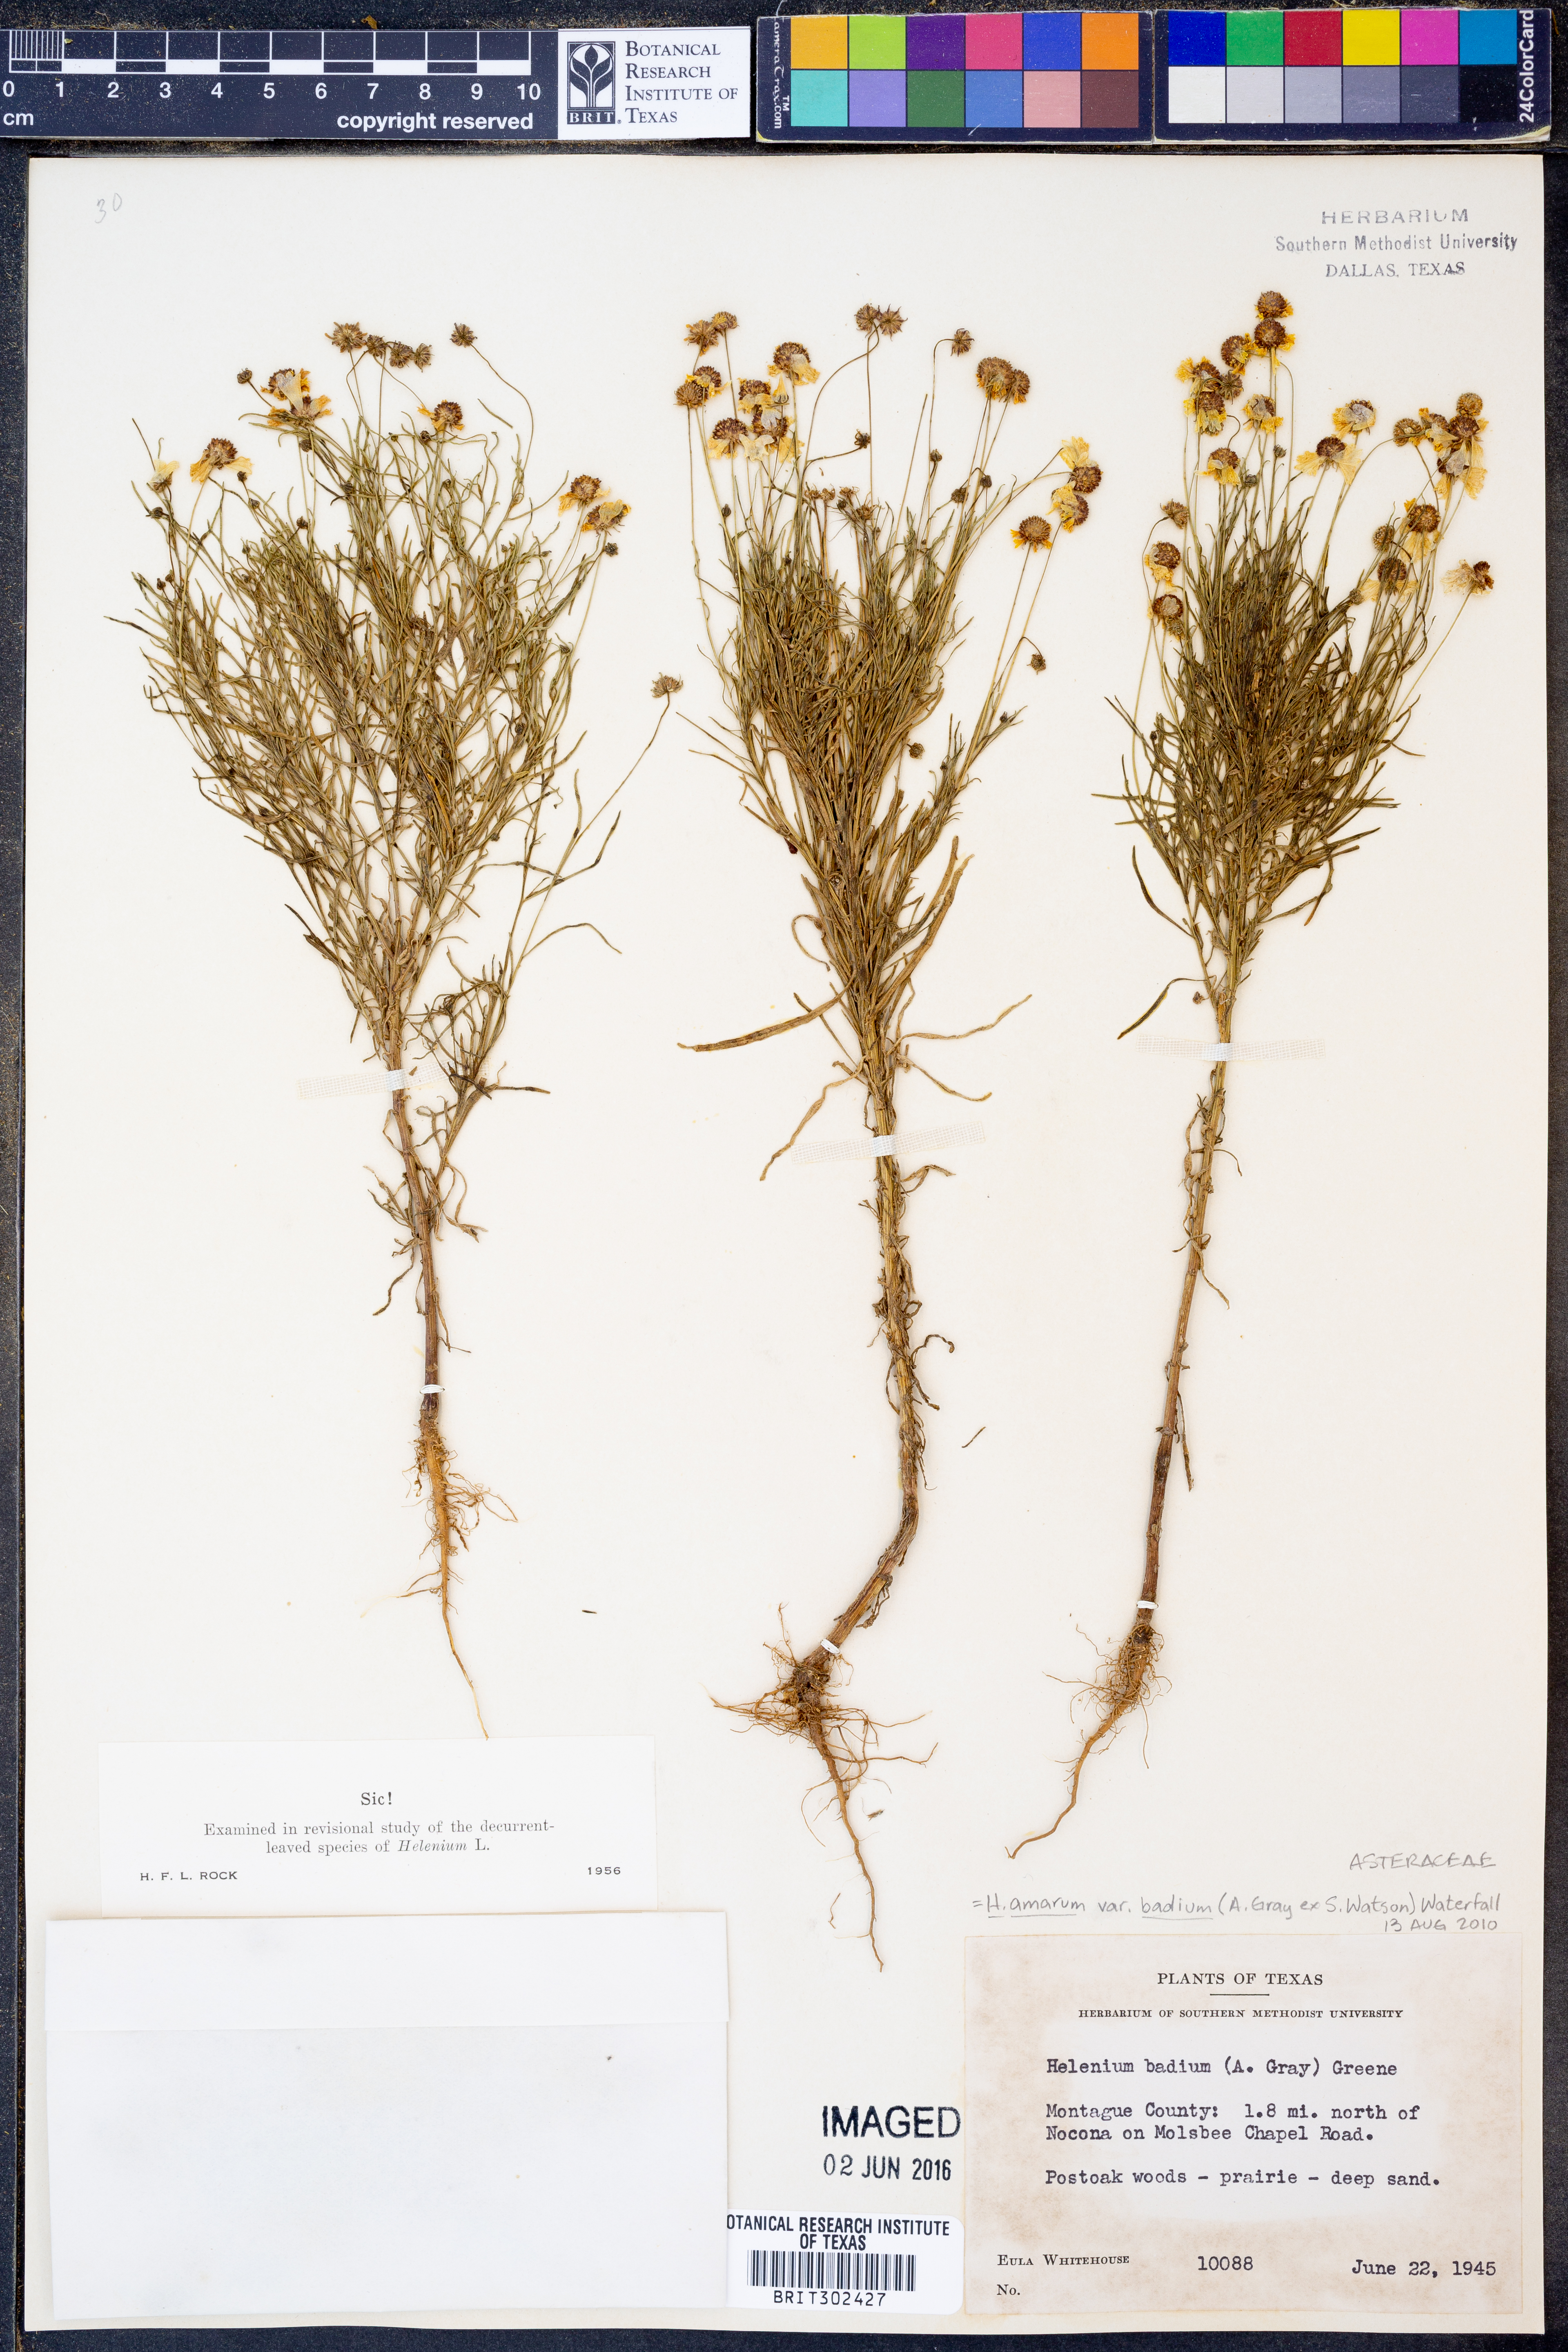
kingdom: Plantae
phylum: Tracheophyta
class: Magnoliopsida
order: Asterales
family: Asteraceae
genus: Helenium
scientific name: Helenium amarum
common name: Bitter sneezeweed
